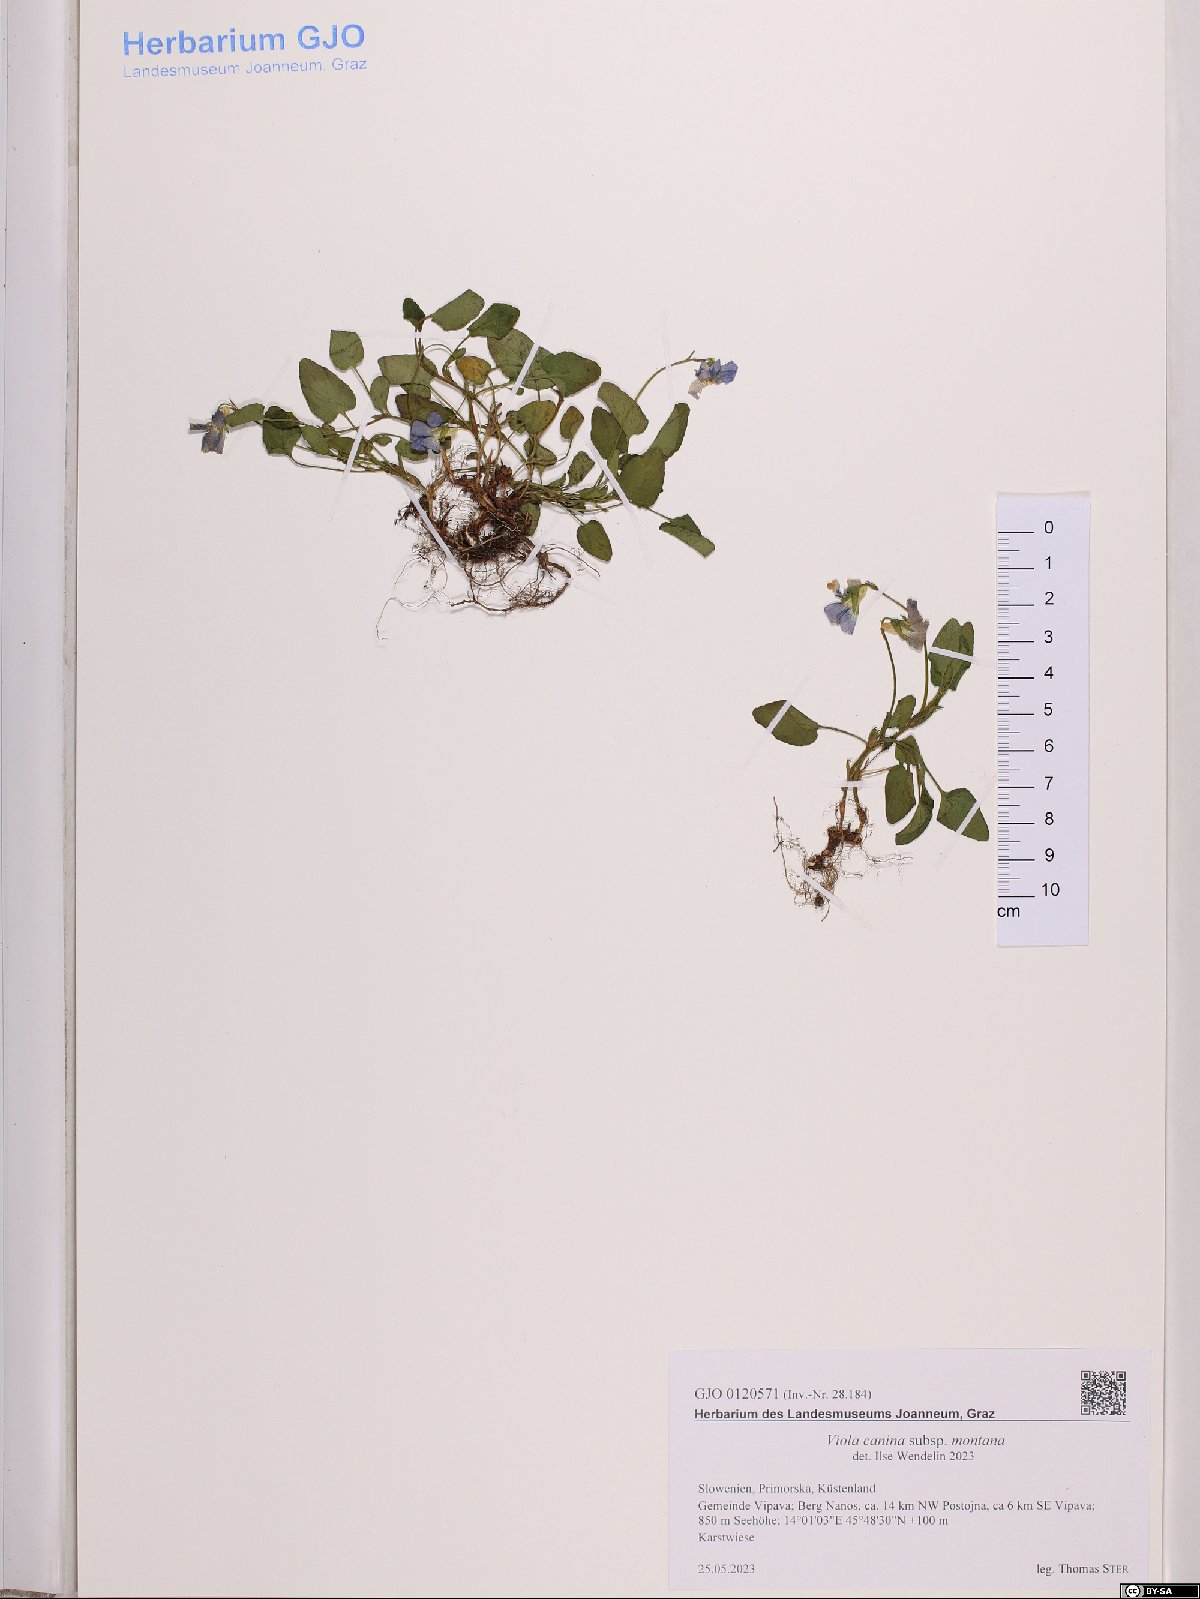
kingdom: Plantae
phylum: Tracheophyta
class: Magnoliopsida
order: Malpighiales
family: Violaceae
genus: Viola
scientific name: Viola ruppii
